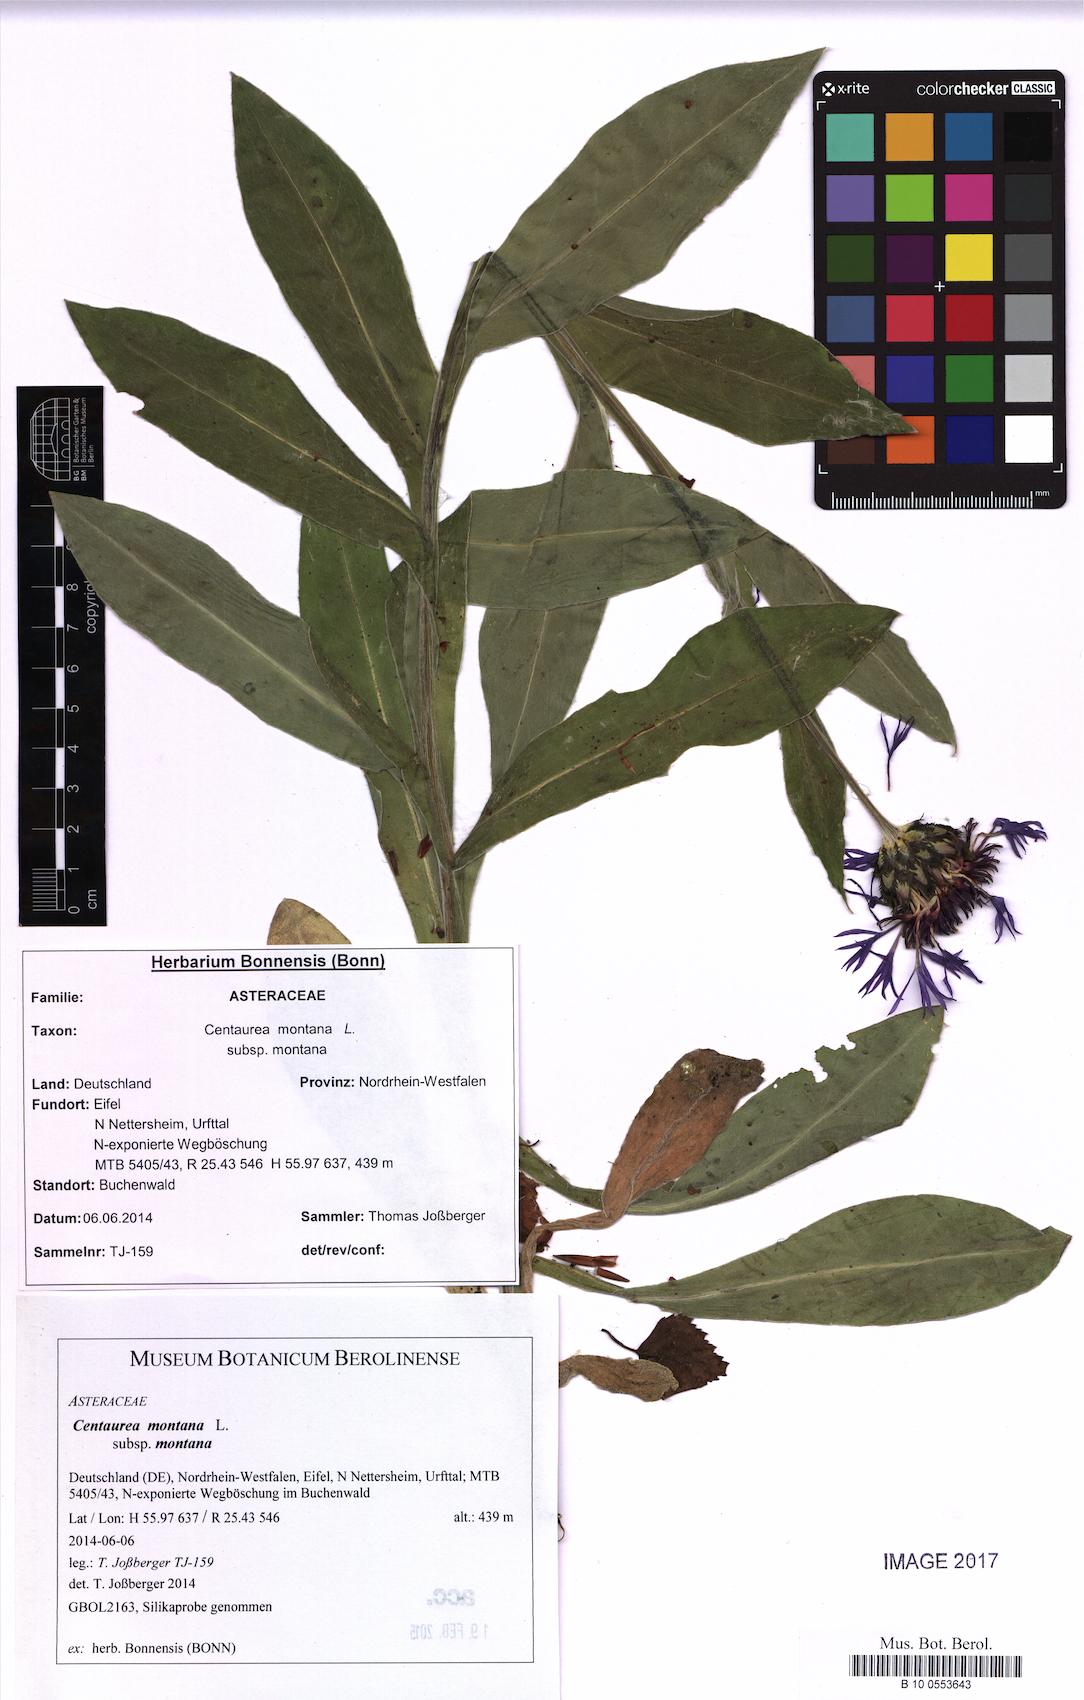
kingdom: Plantae
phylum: Tracheophyta
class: Magnoliopsida
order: Asterales
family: Asteraceae
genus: Centaurea
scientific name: Centaurea montana
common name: Perennial cornflower
